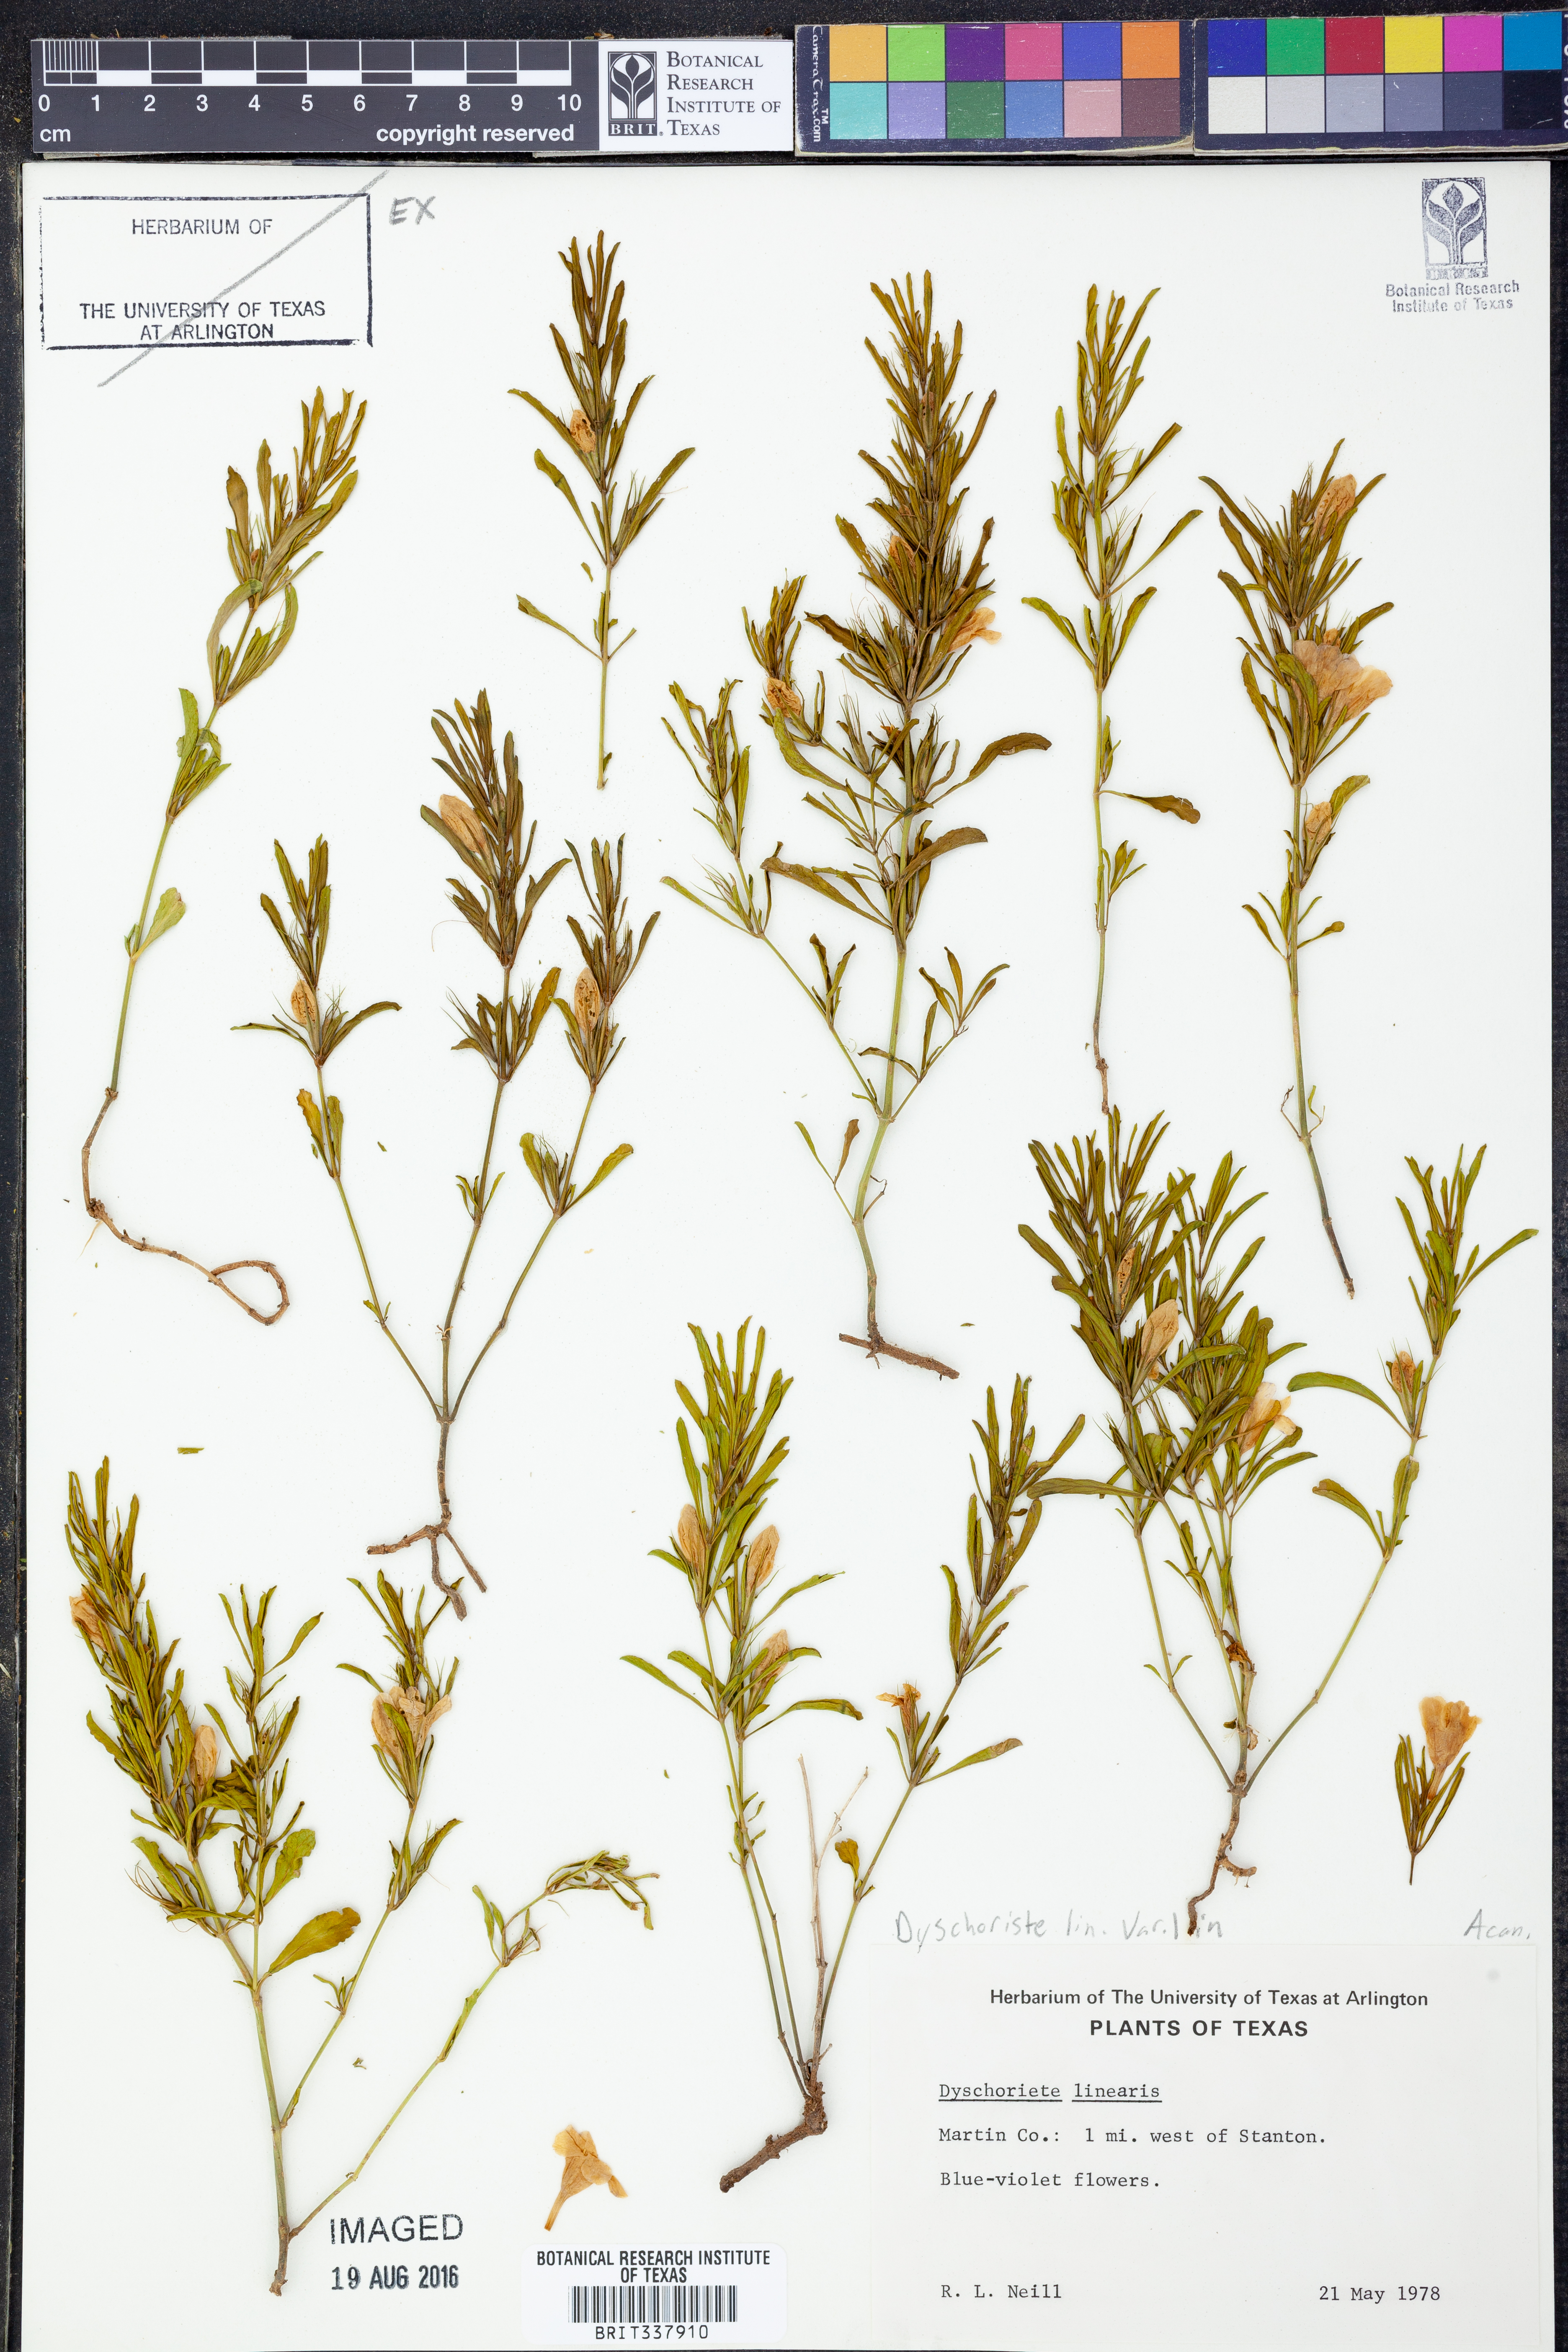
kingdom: Plantae
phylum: Tracheophyta
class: Magnoliopsida
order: Lamiales
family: Acanthaceae
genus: Dyschoriste
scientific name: Dyschoriste linearis
